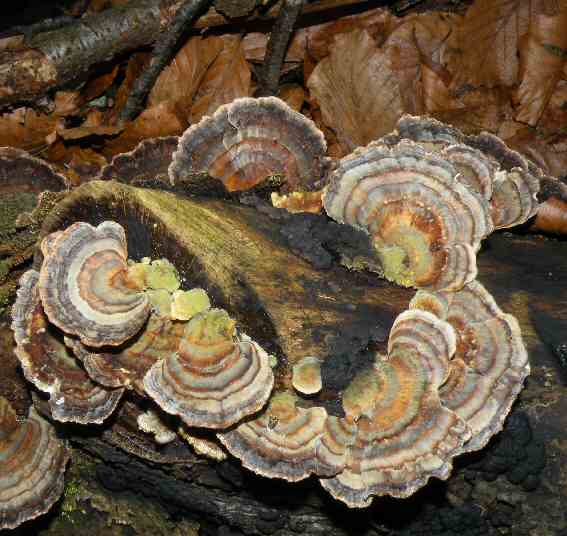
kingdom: Fungi
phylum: Basidiomycota
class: Agaricomycetes
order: Polyporales
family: Polyporaceae
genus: Trametes
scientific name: Trametes versicolor
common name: broget læderporesvamp
